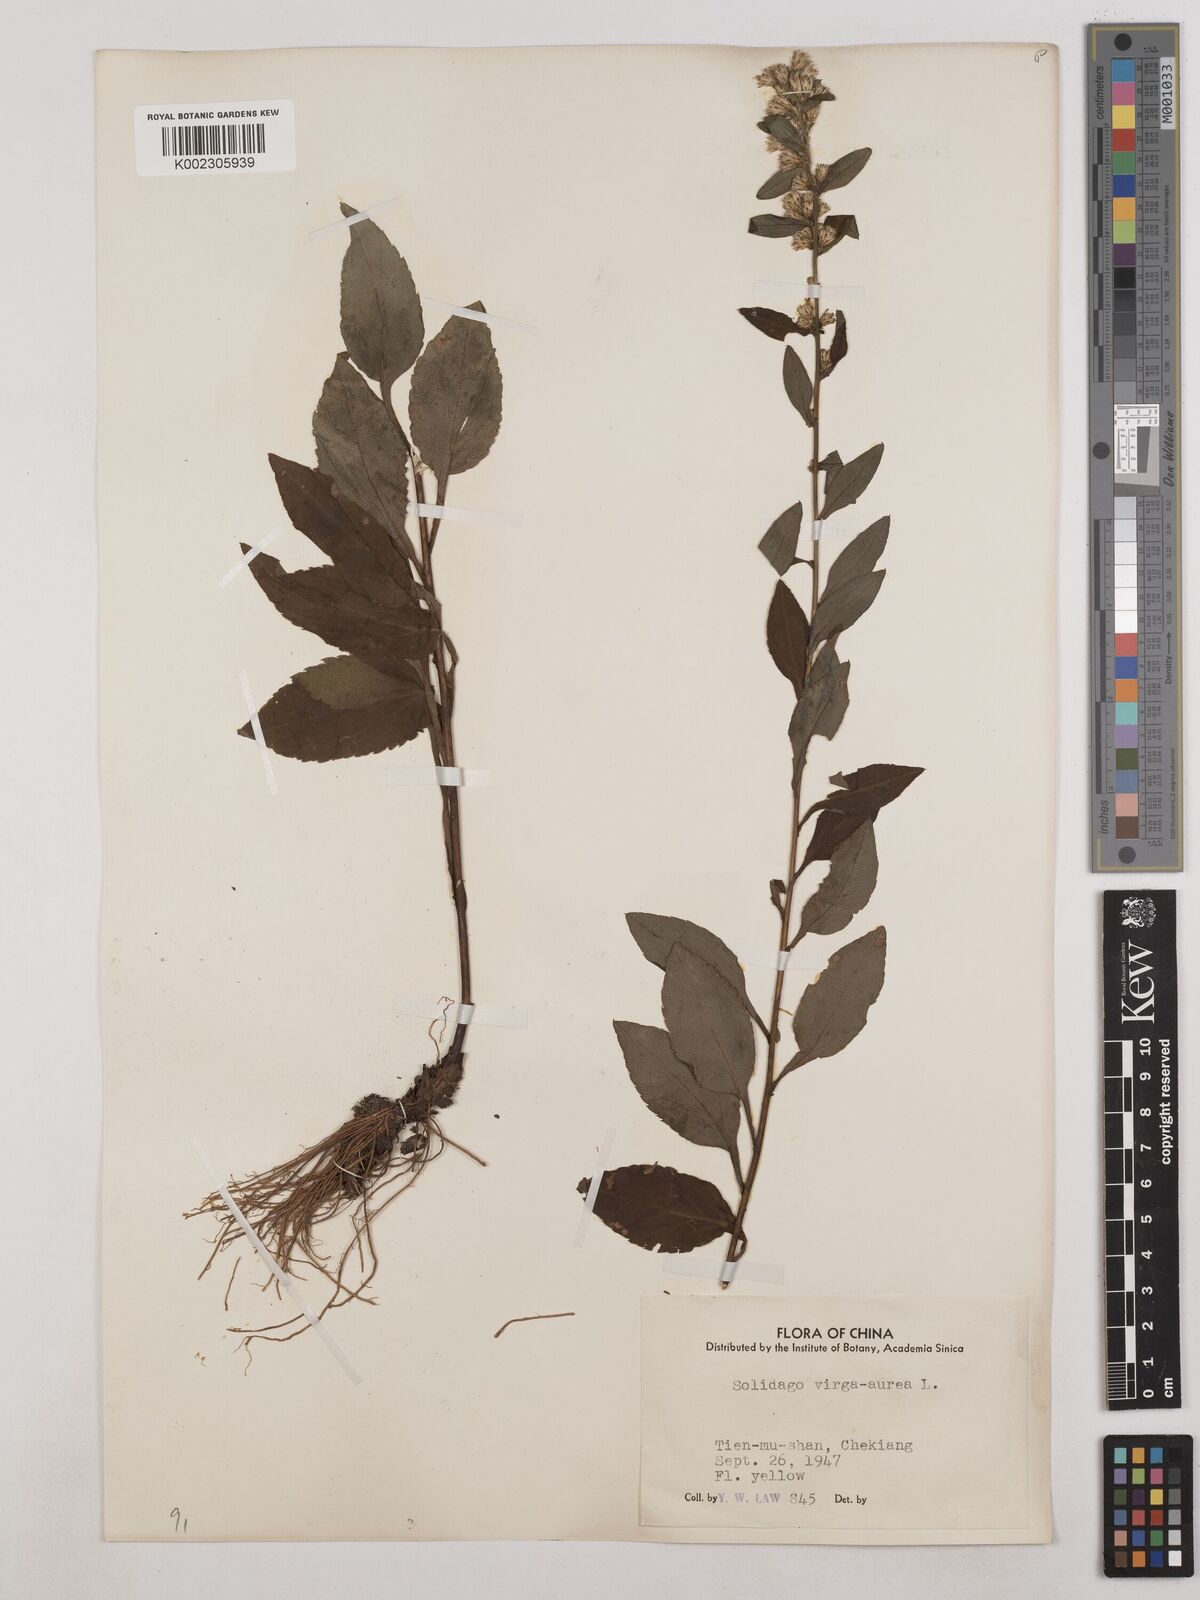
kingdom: Plantae
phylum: Tracheophyta
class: Magnoliopsida
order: Asterales
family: Asteraceae
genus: Solidago
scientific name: Solidago virgaurea
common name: Goldenrod
